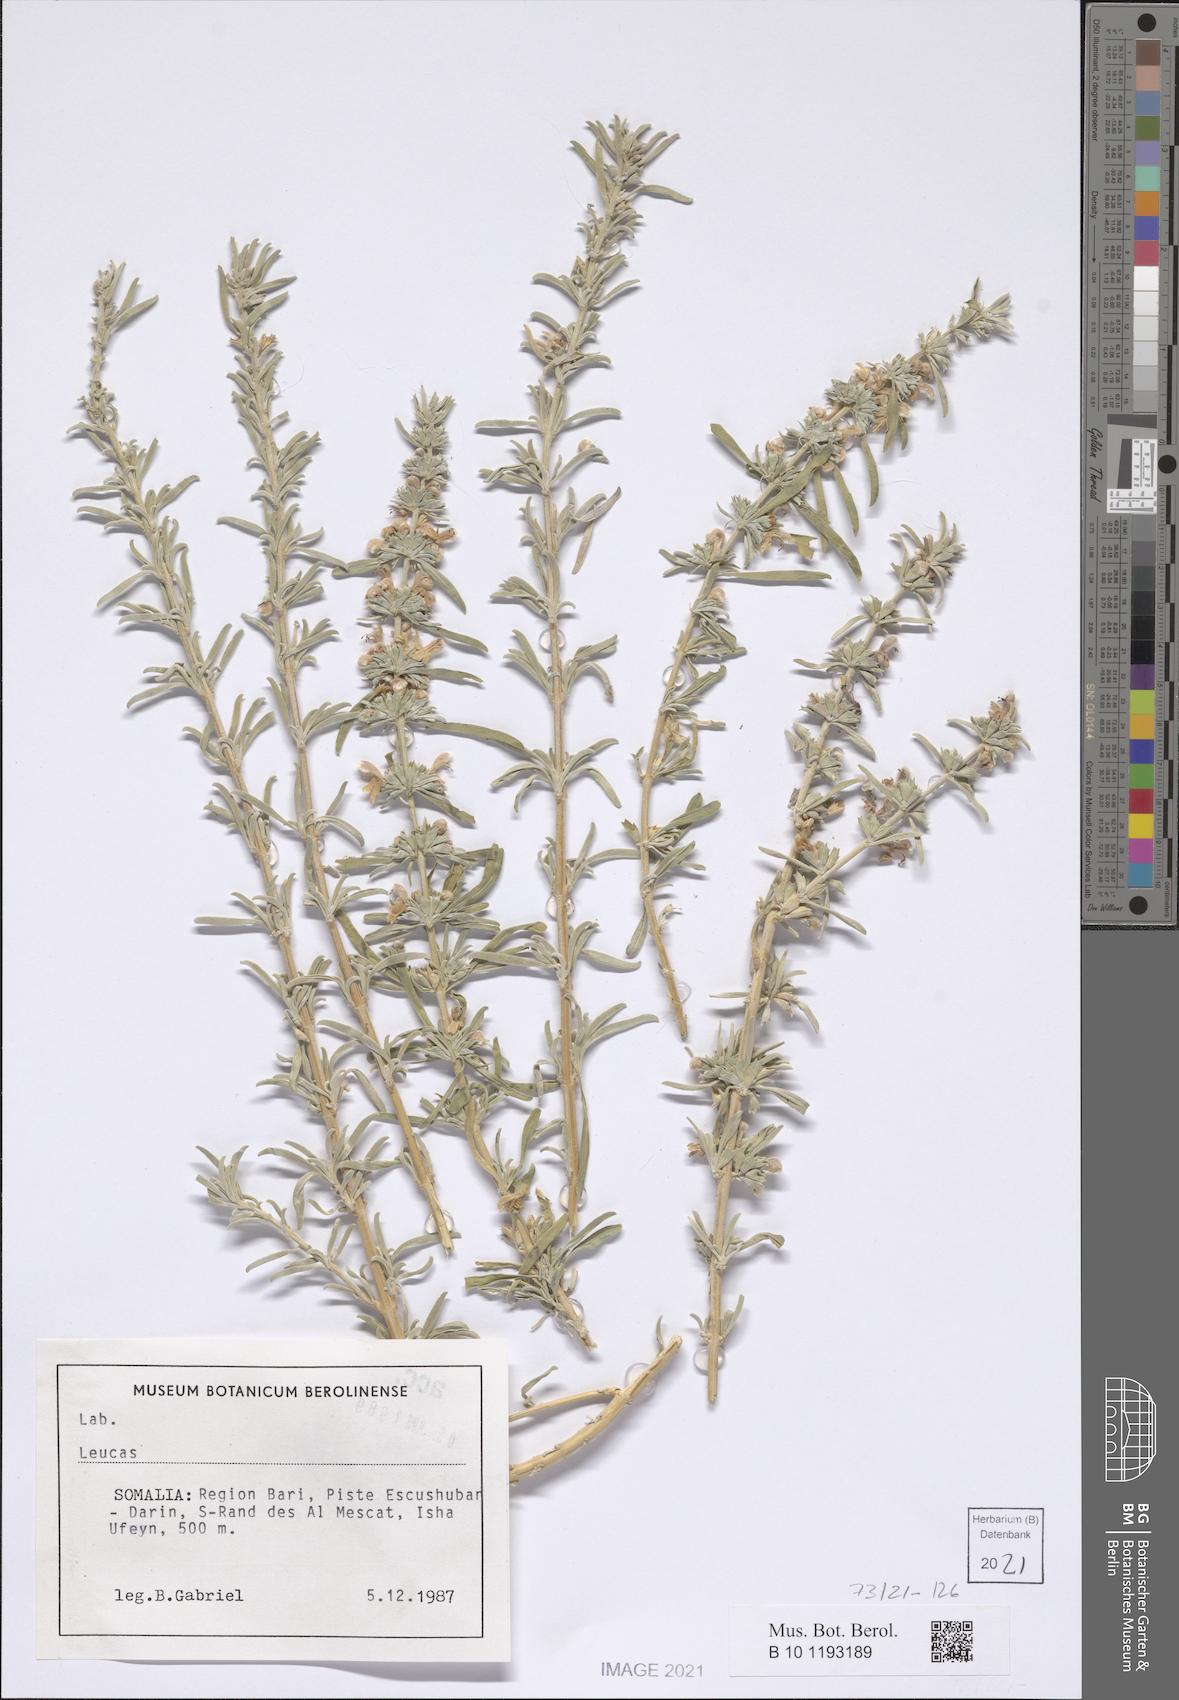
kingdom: Plantae
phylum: Tracheophyta
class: Magnoliopsida
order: Lamiales
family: Lamiaceae
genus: Leucas
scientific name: Leucas
